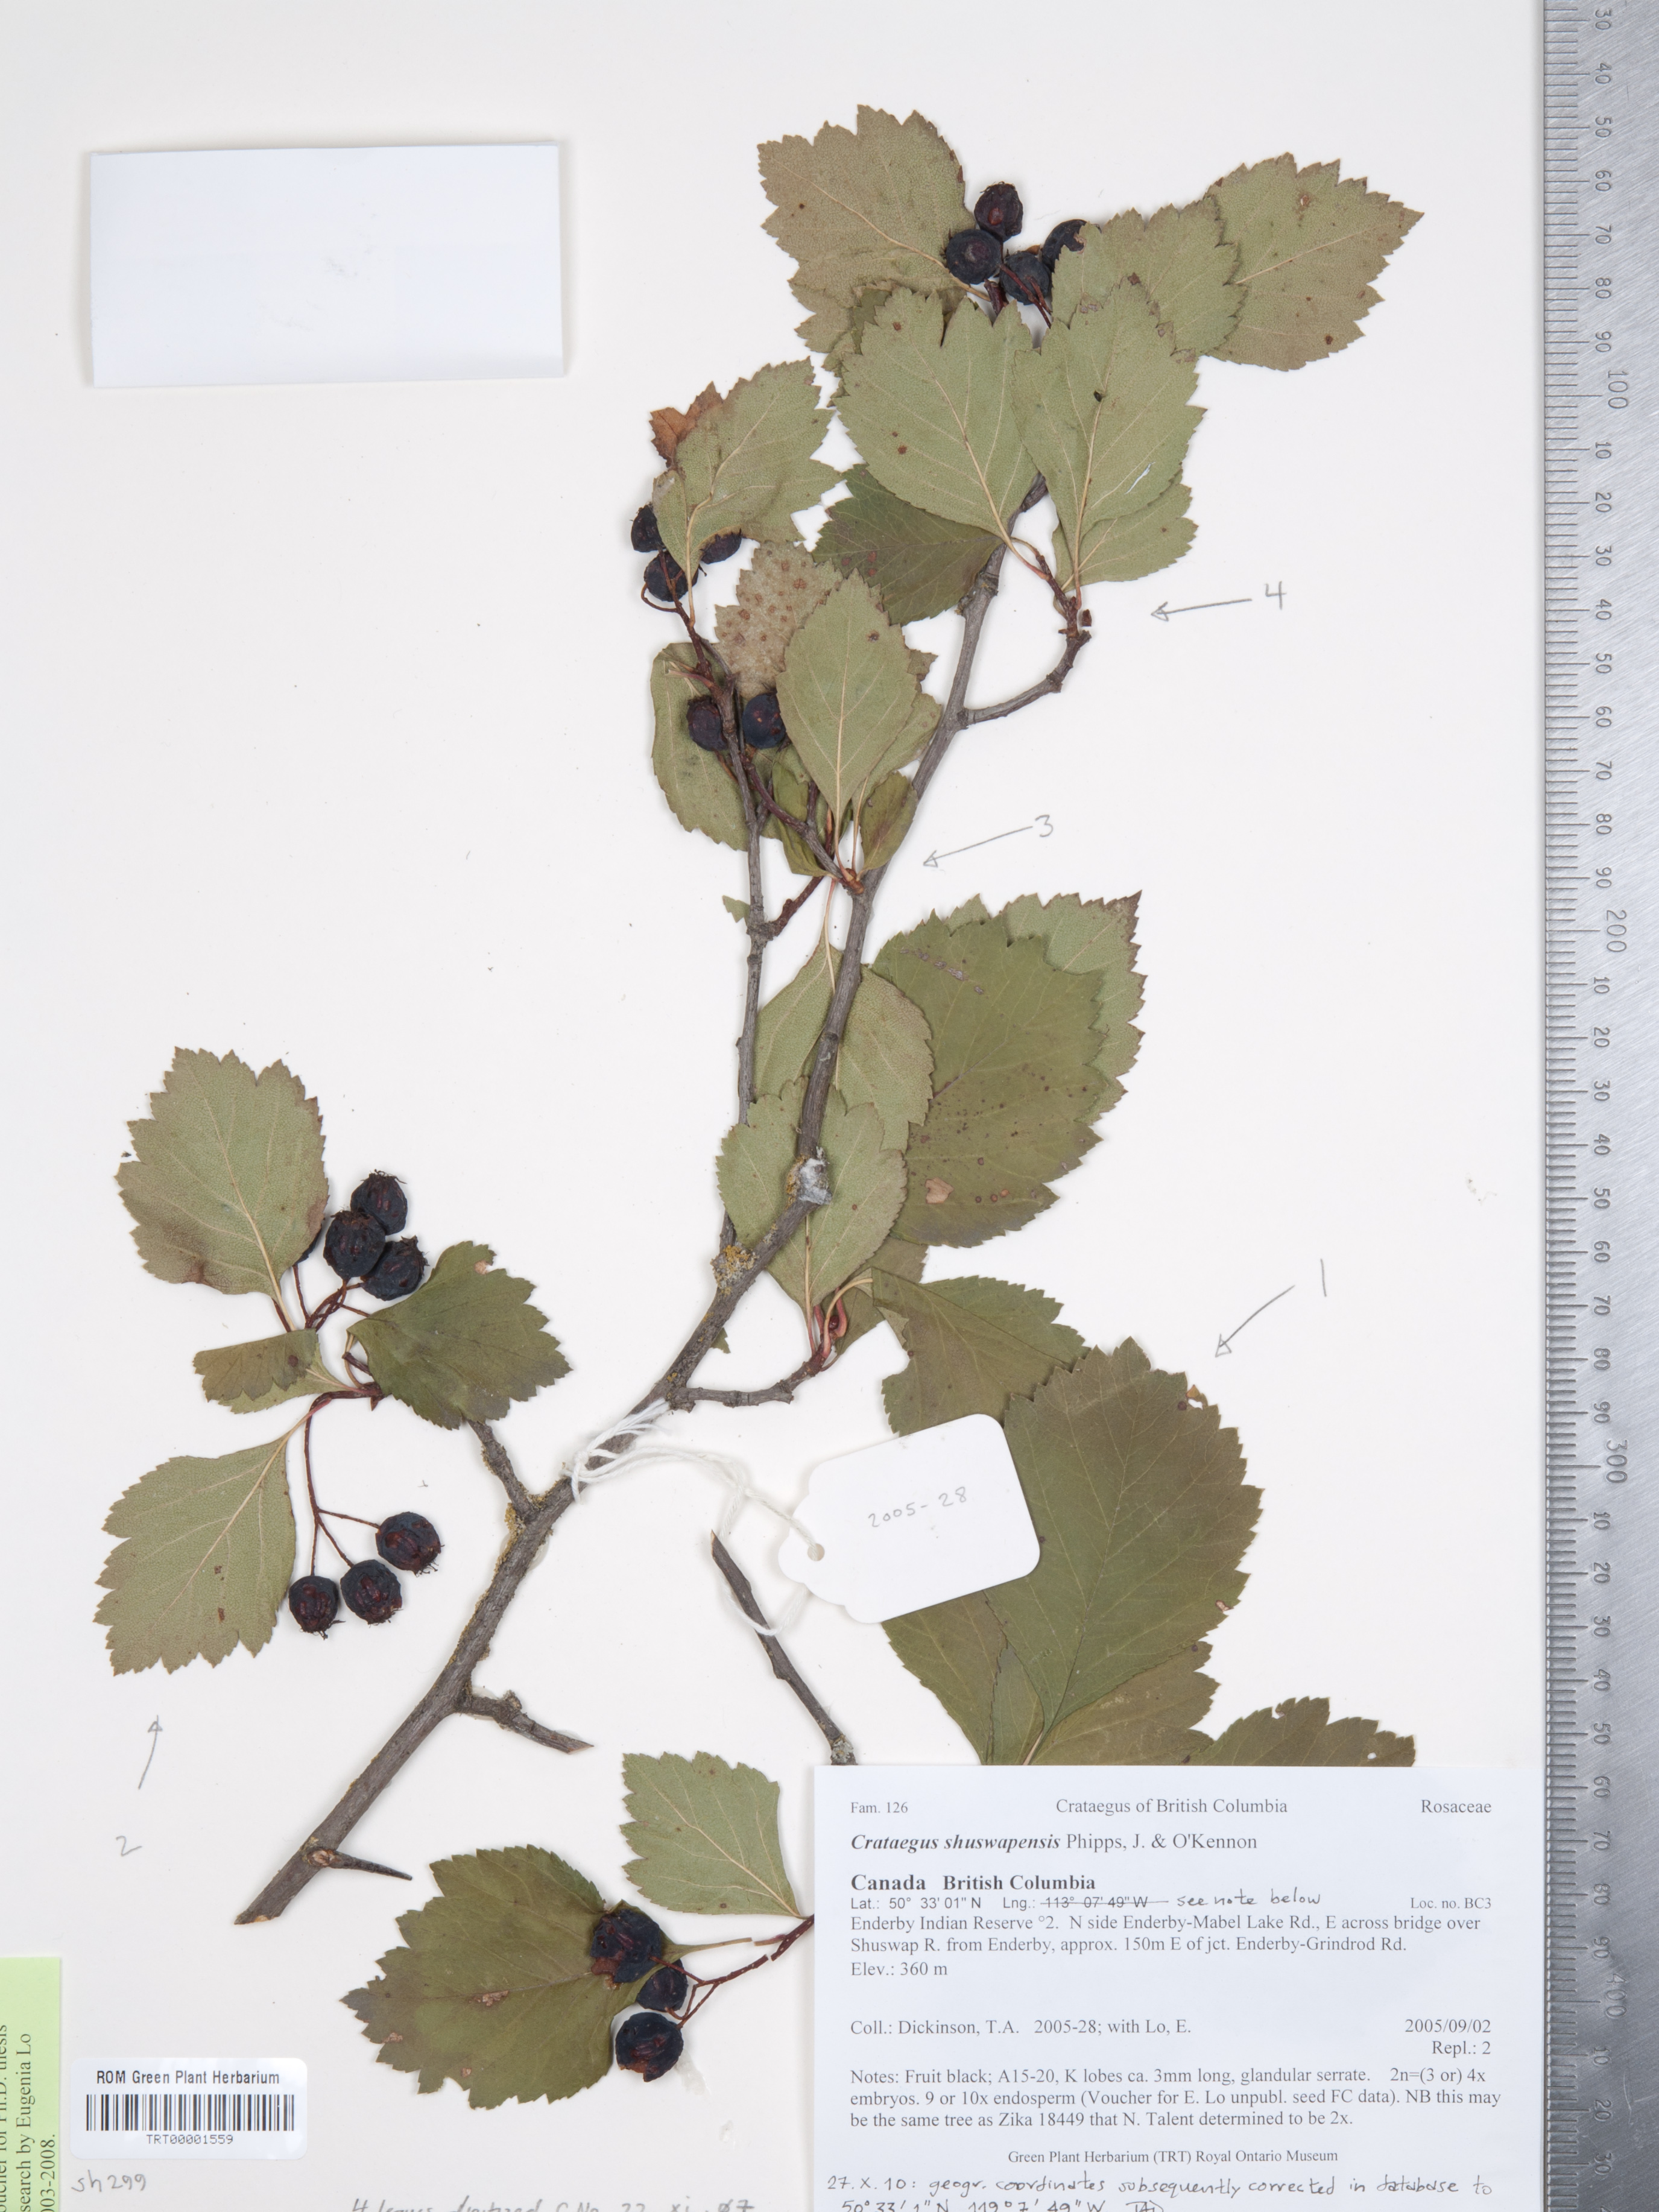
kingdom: Plantae
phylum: Tracheophyta
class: Magnoliopsida
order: Rosales
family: Rosaceae
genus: Crataegus
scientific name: Crataegus shuswapensis
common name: Shuswap hawthorn
